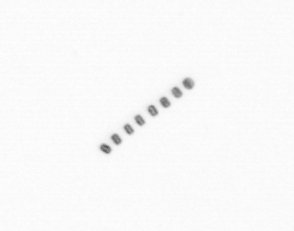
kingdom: Chromista
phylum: Ochrophyta
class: Bacillariophyceae
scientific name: Bacillariophyceae
